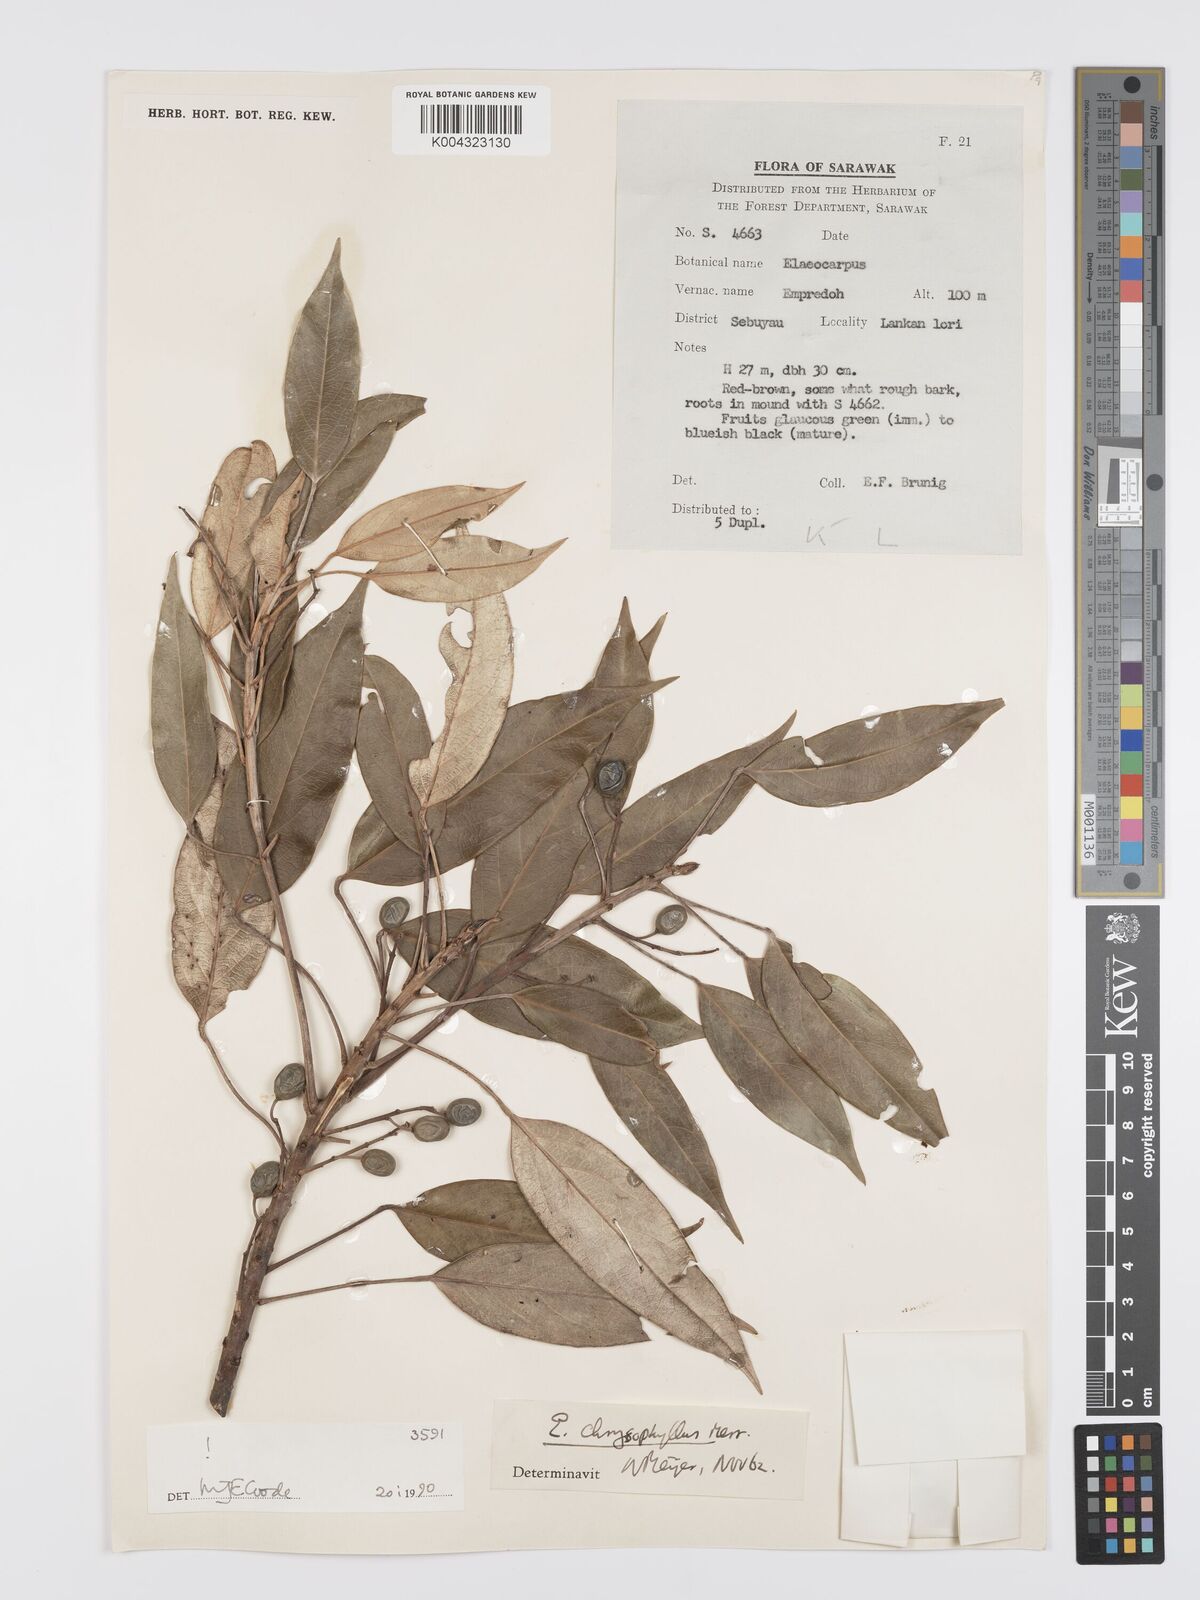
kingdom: Plantae
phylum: Tracheophyta
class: Magnoliopsida
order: Oxalidales
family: Elaeocarpaceae
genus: Elaeocarpus
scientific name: Elaeocarpus chrysophyllus
